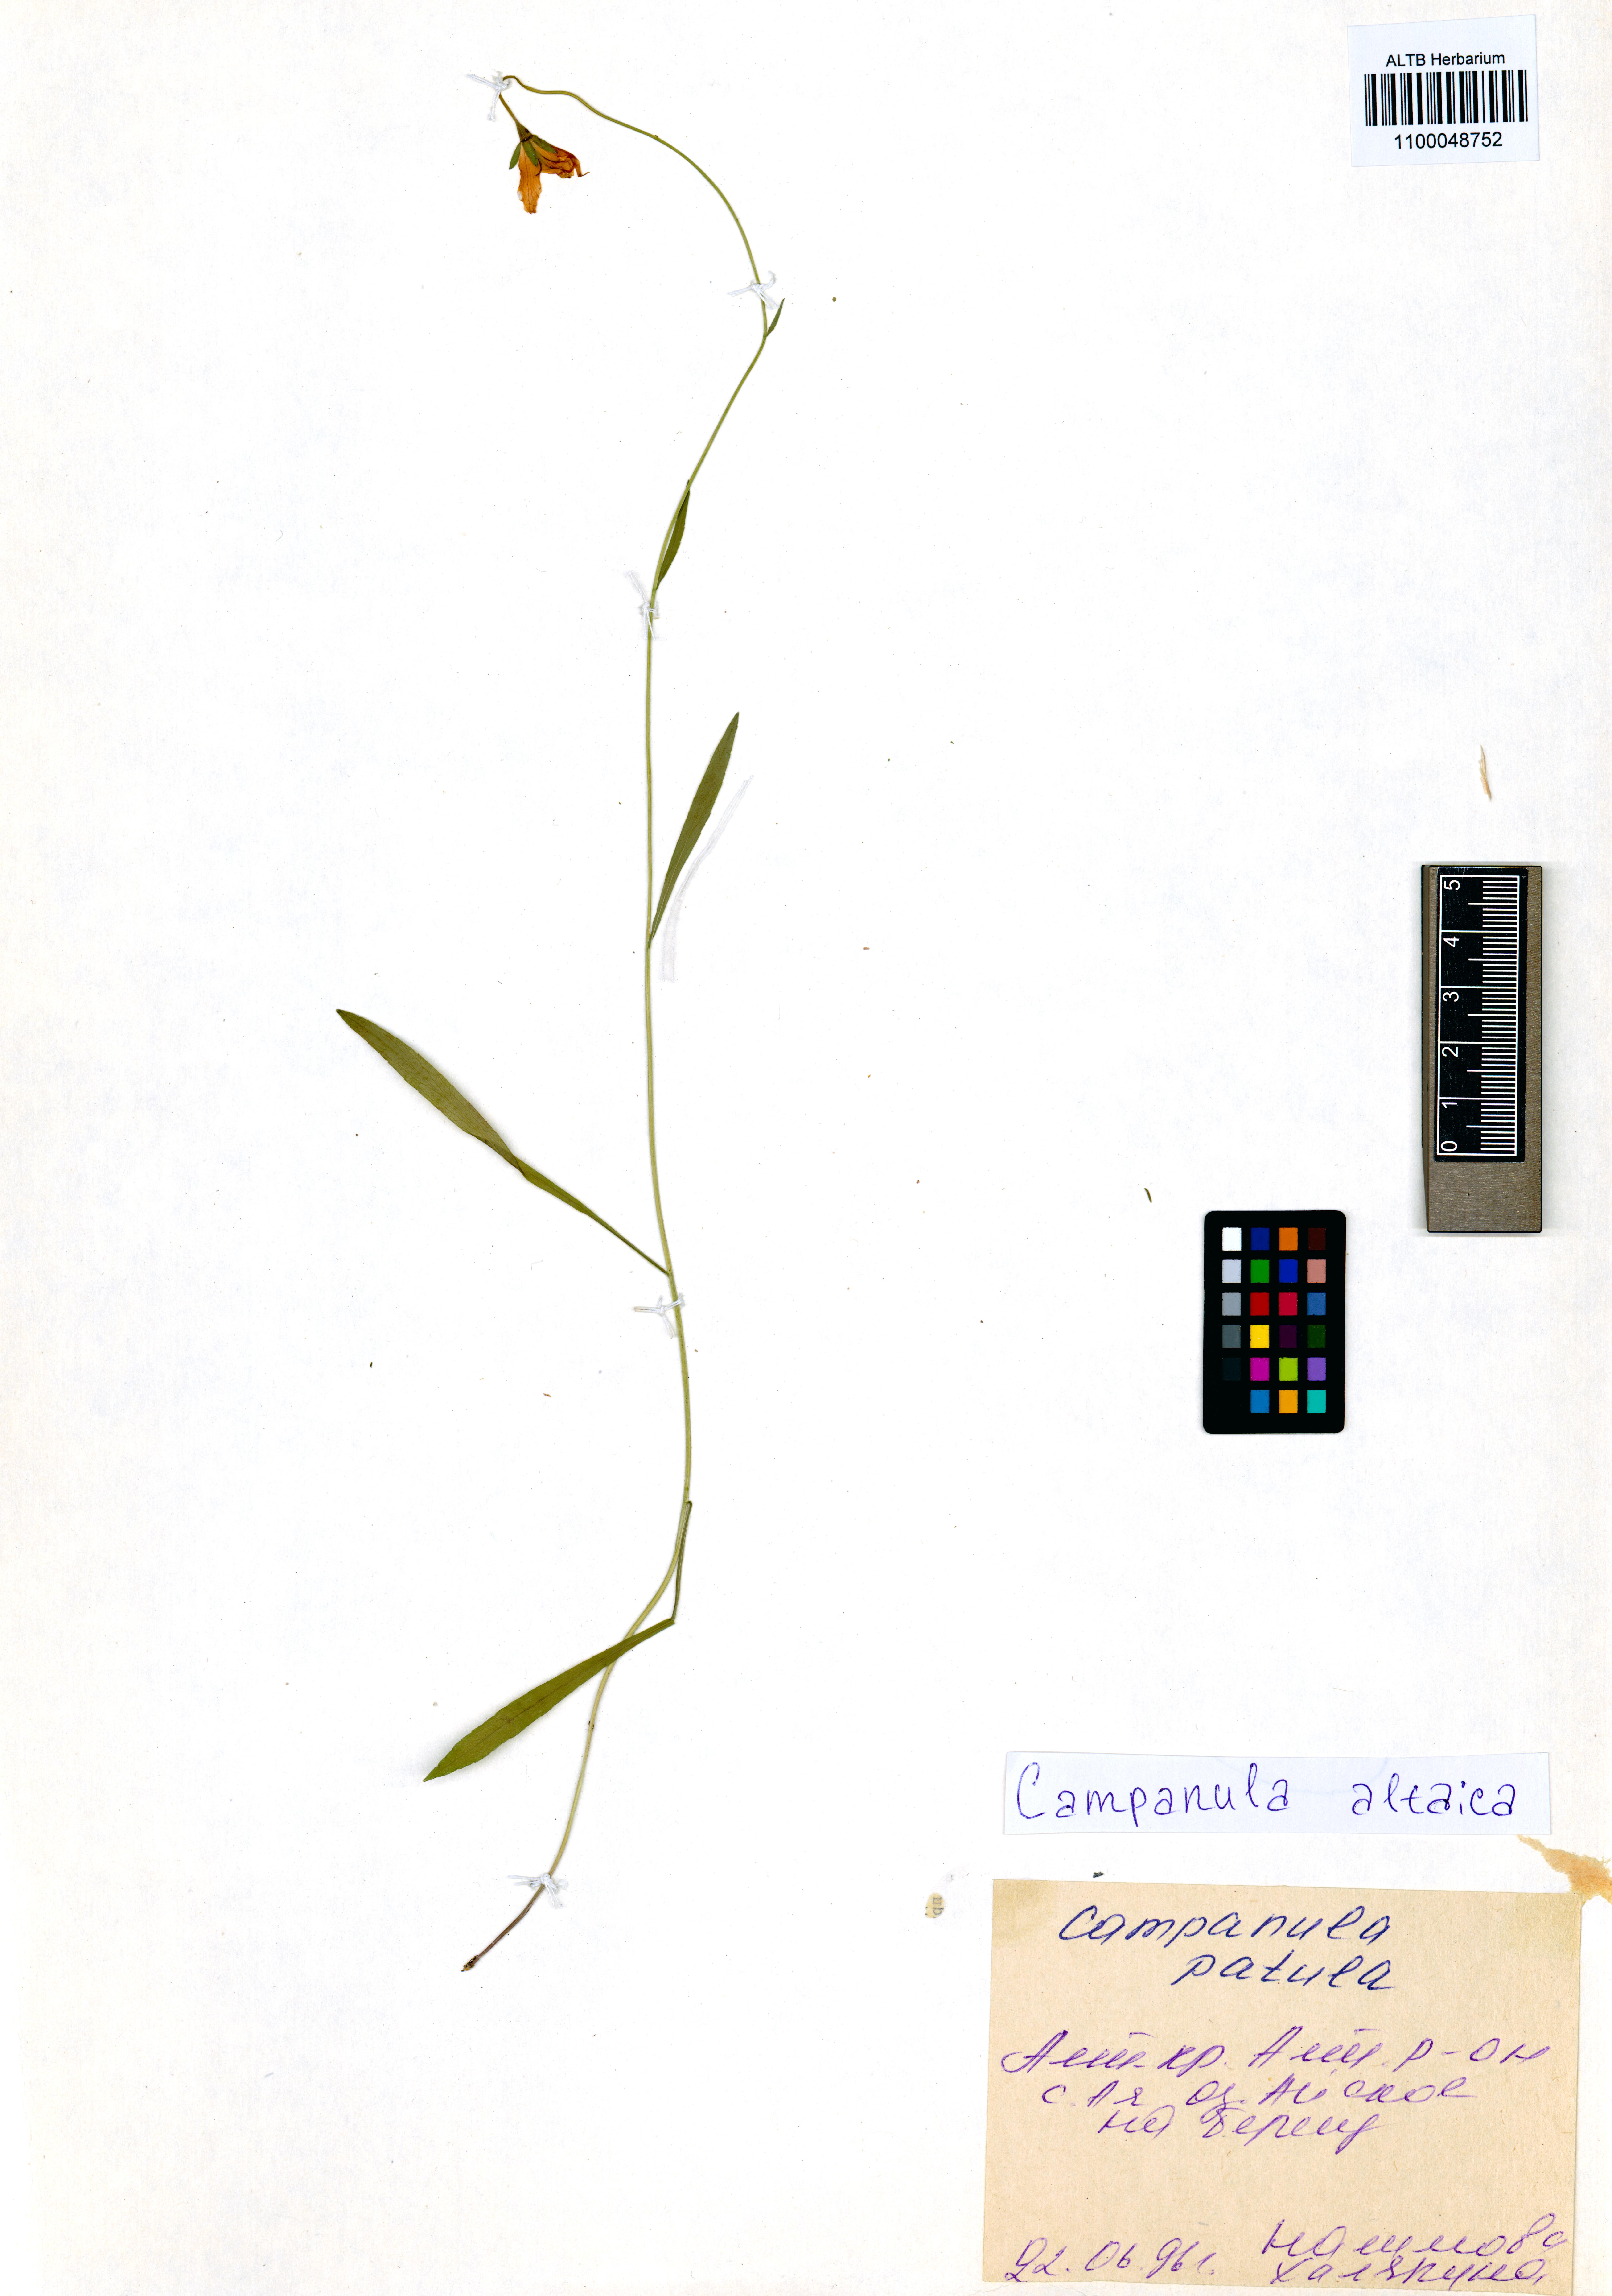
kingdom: Plantae
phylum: Tracheophyta
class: Magnoliopsida
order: Asterales
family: Campanulaceae
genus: Campanula
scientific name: Campanula stevenii
